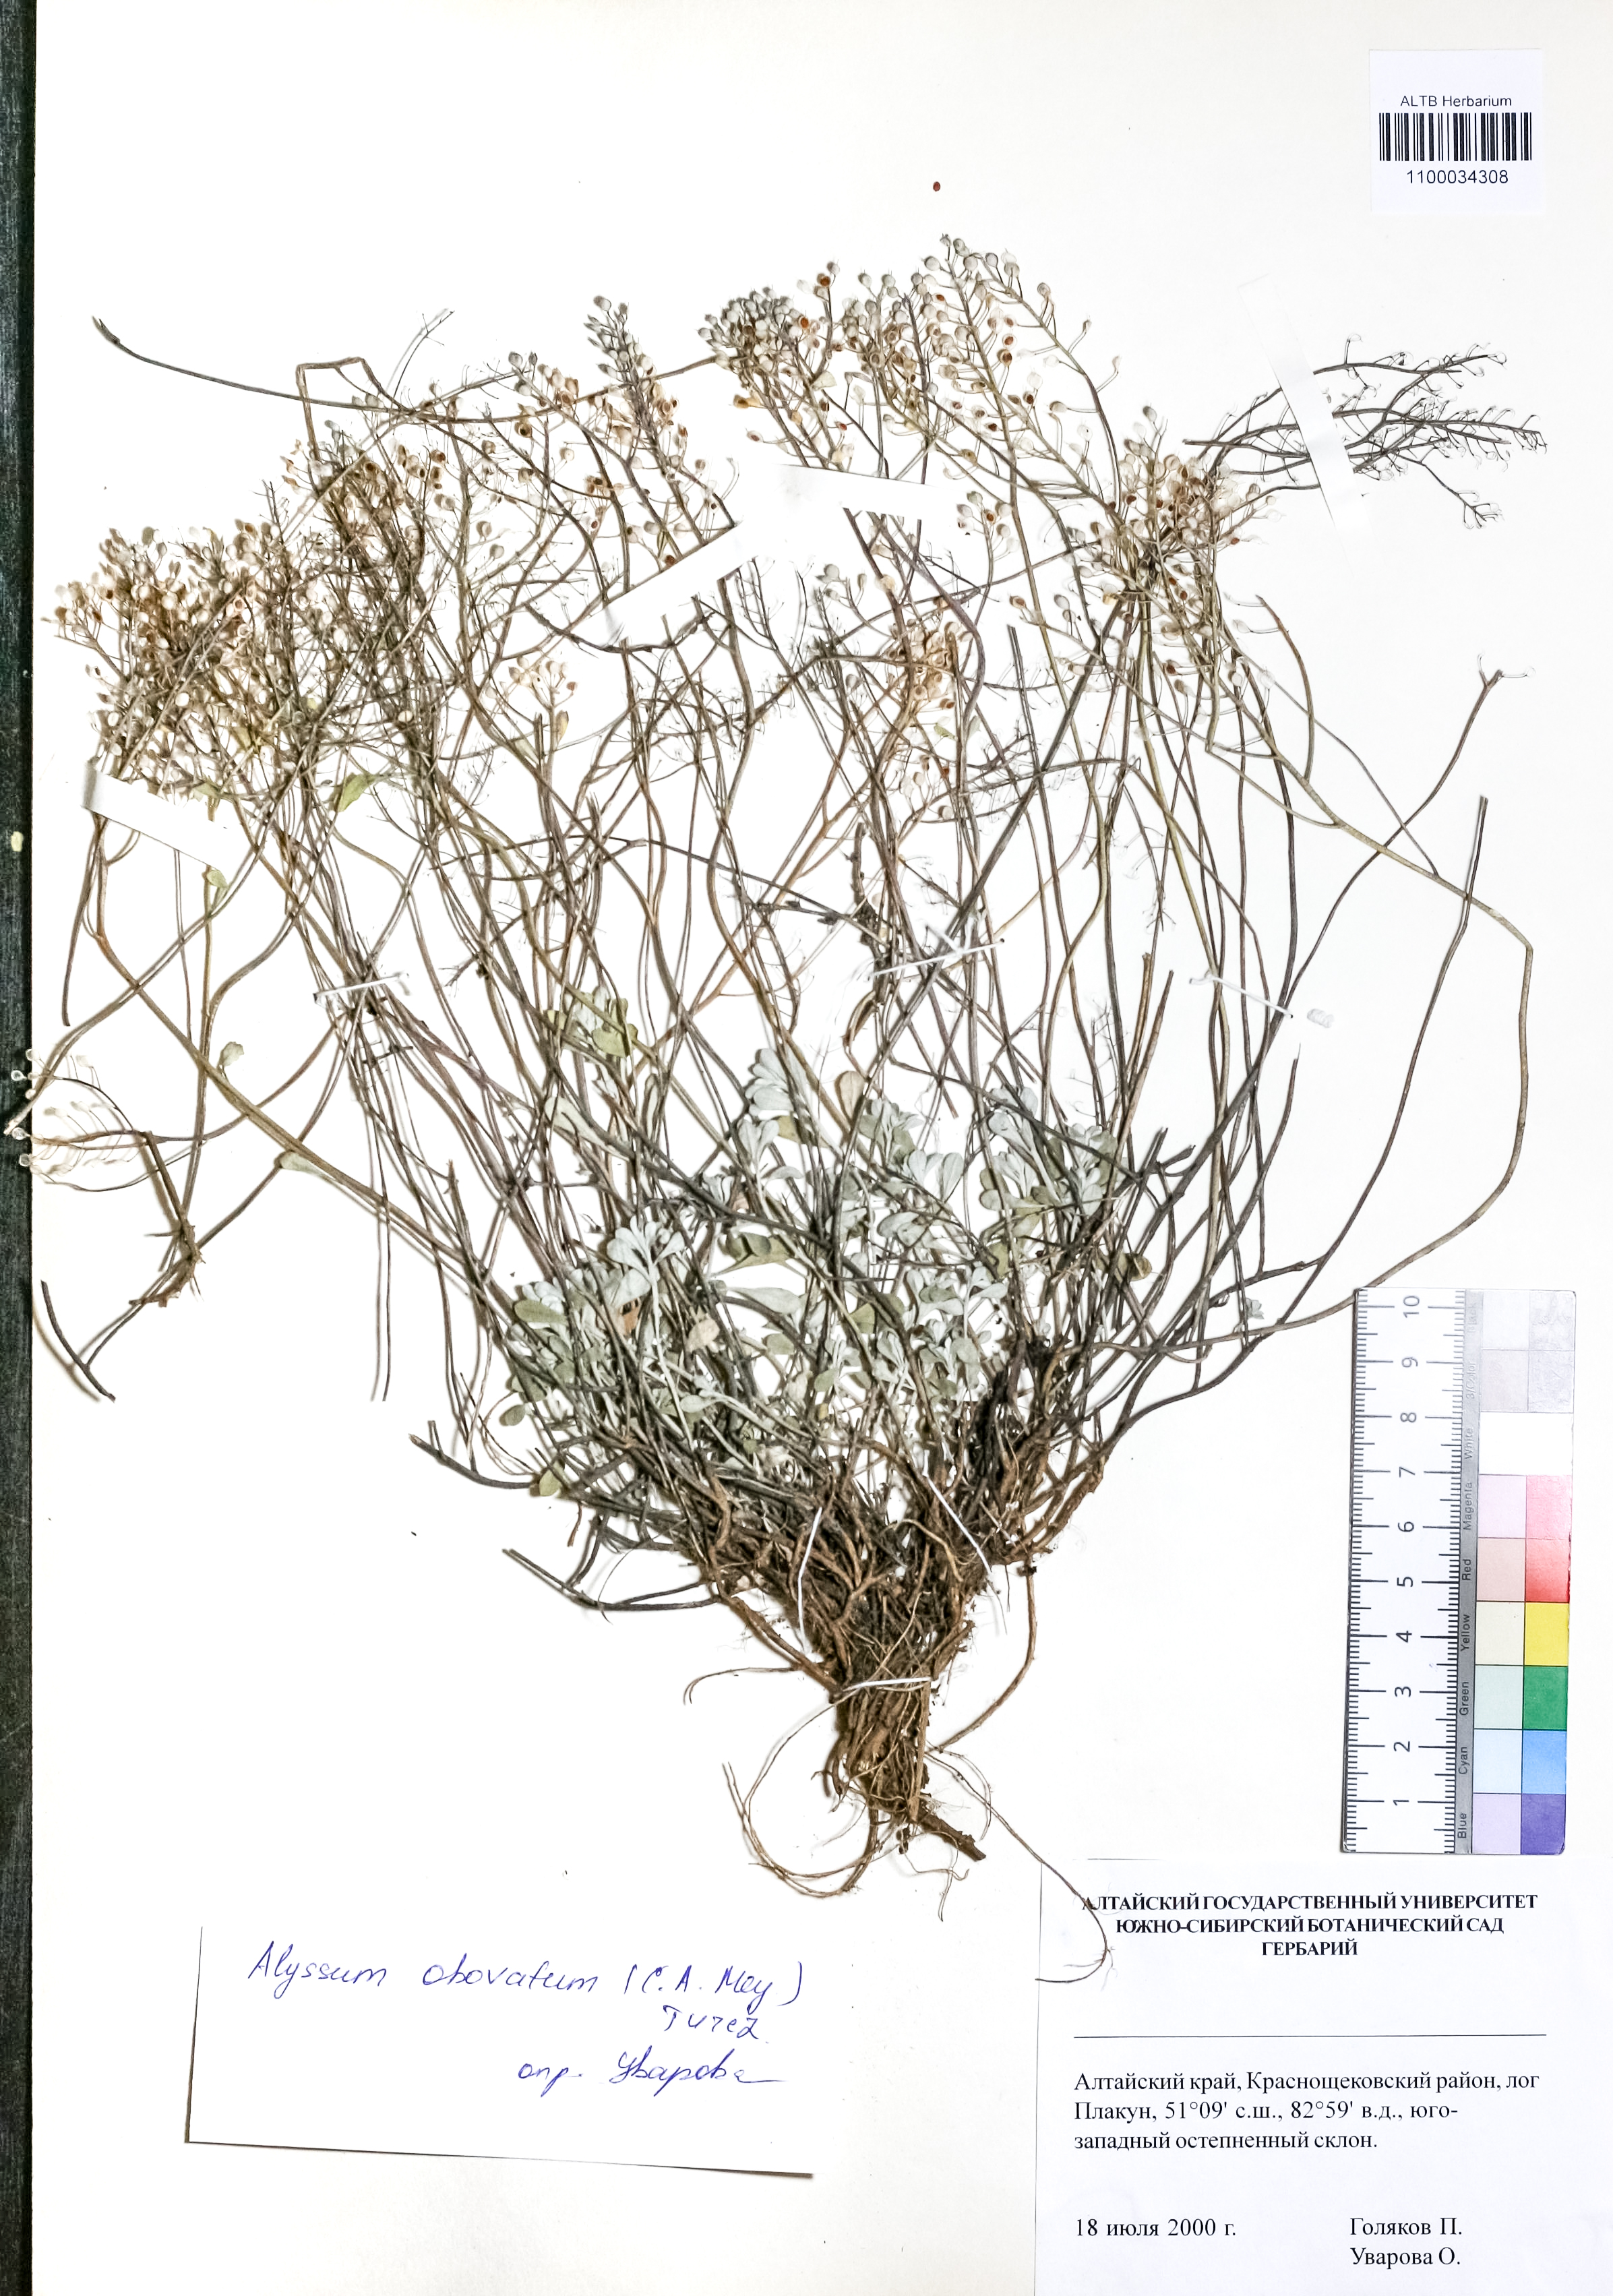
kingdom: Plantae
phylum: Tracheophyta
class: Magnoliopsida
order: Brassicales
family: Brassicaceae
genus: Odontarrhena
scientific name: Odontarrhena obovata
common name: American alyssum
